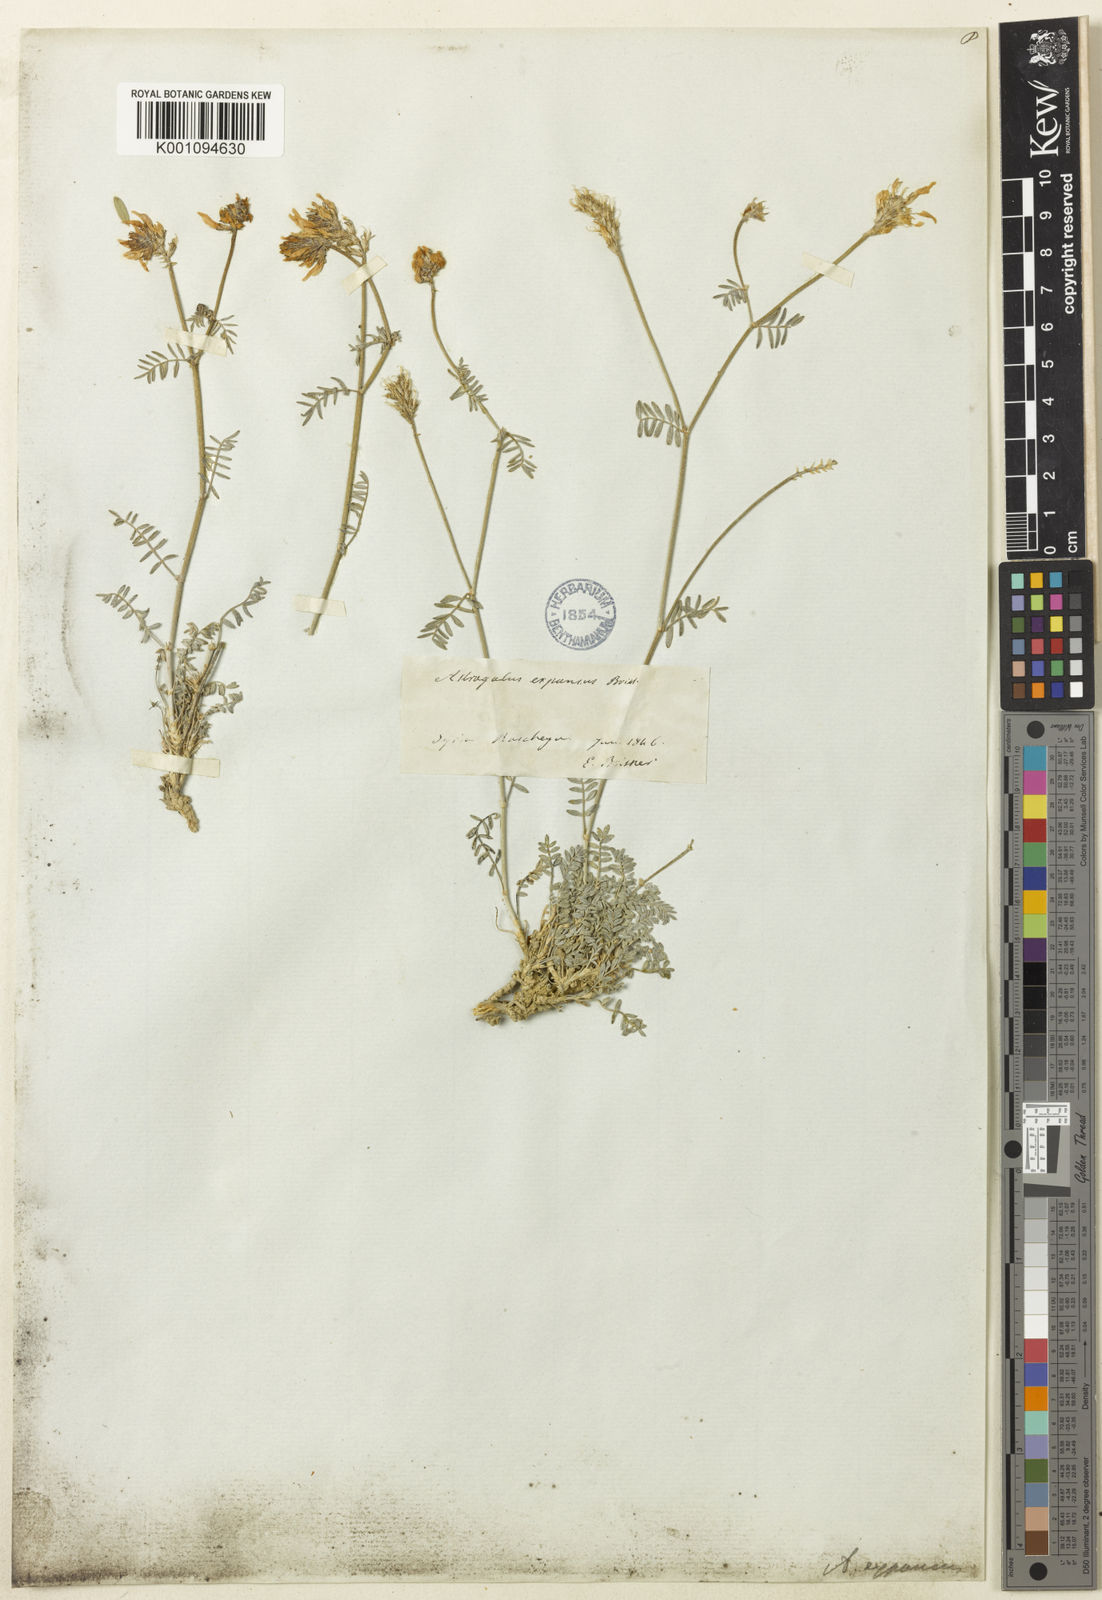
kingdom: Plantae
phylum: Tracheophyta
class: Magnoliopsida
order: Fabales
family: Fabaceae
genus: Astragalus
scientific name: Astragalus
